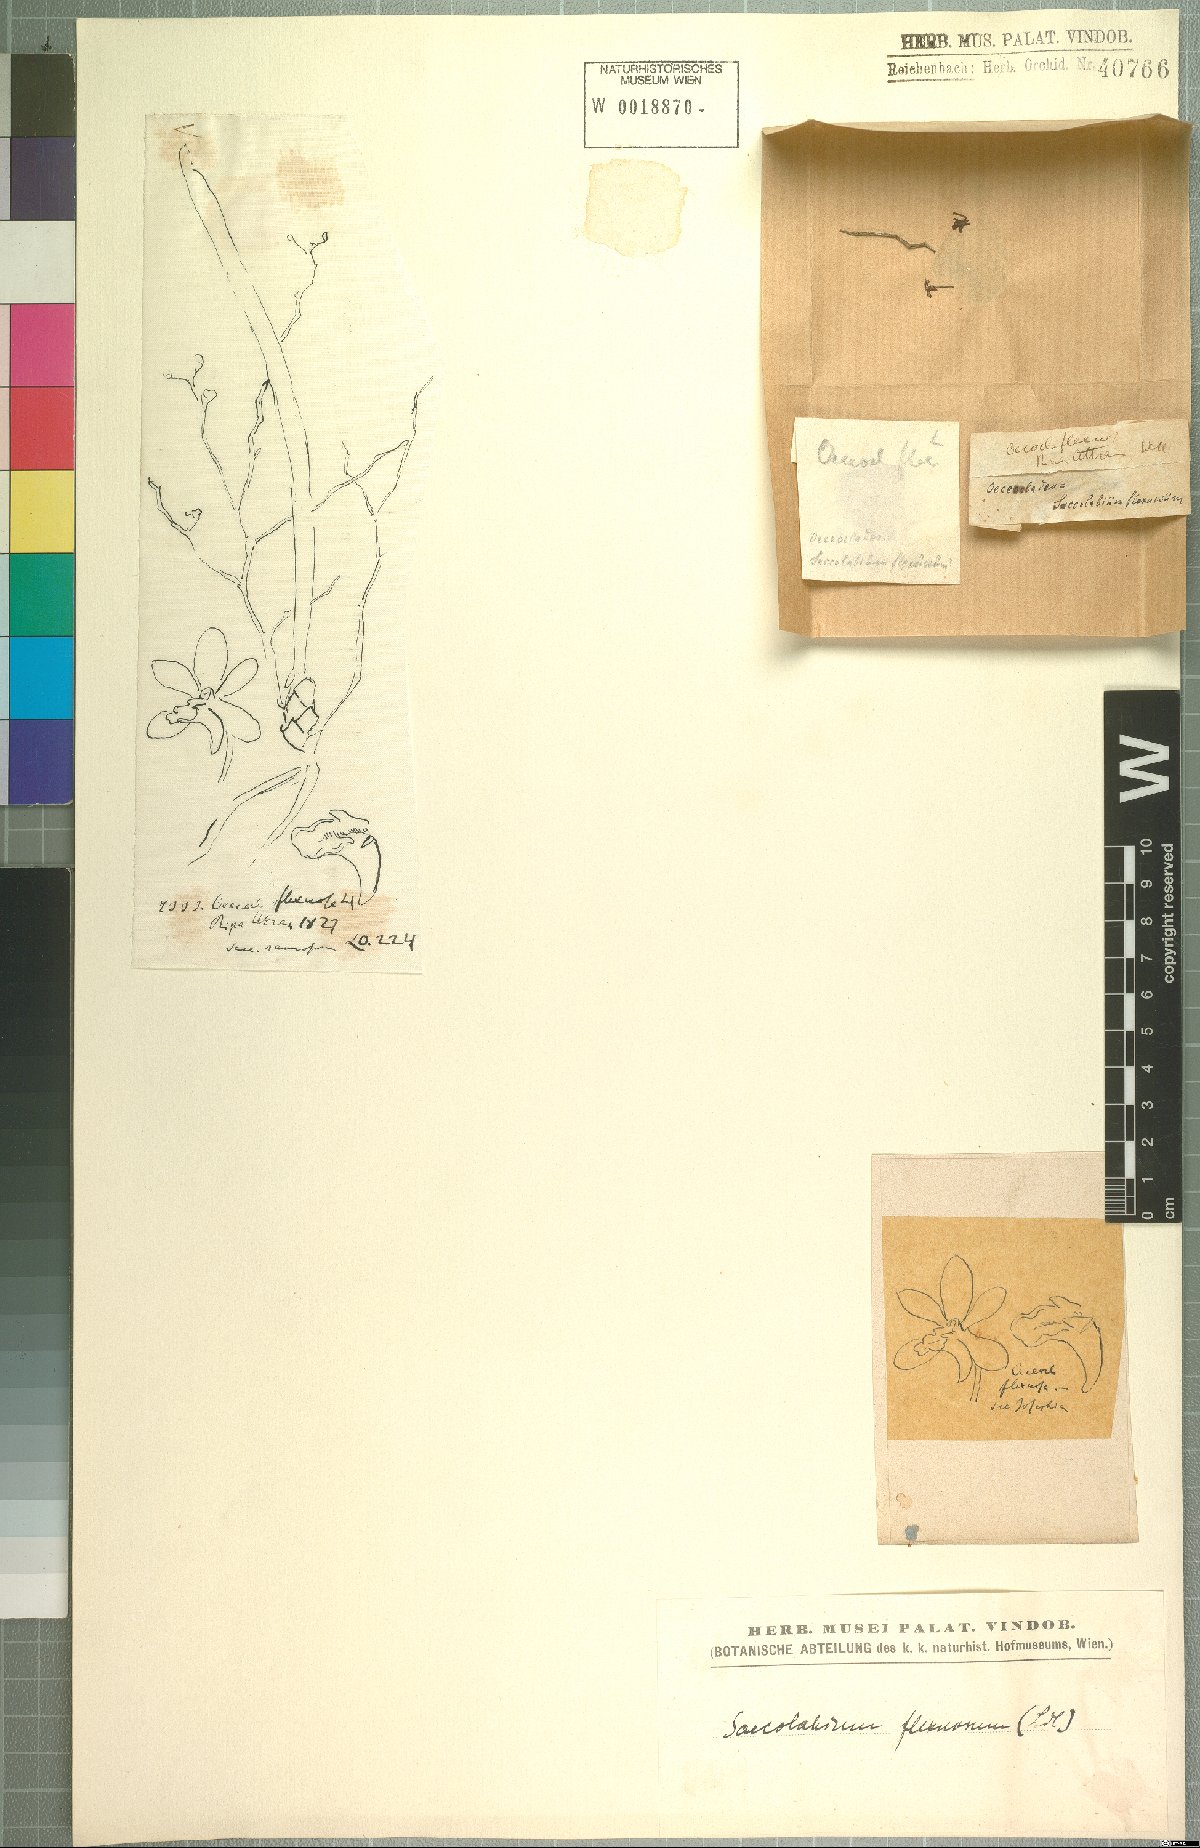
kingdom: Plantae
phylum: Tracheophyta
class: Liliopsida
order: Asparagales
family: Orchidaceae
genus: Trichoglottis
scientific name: Trichoglottis ramosa
